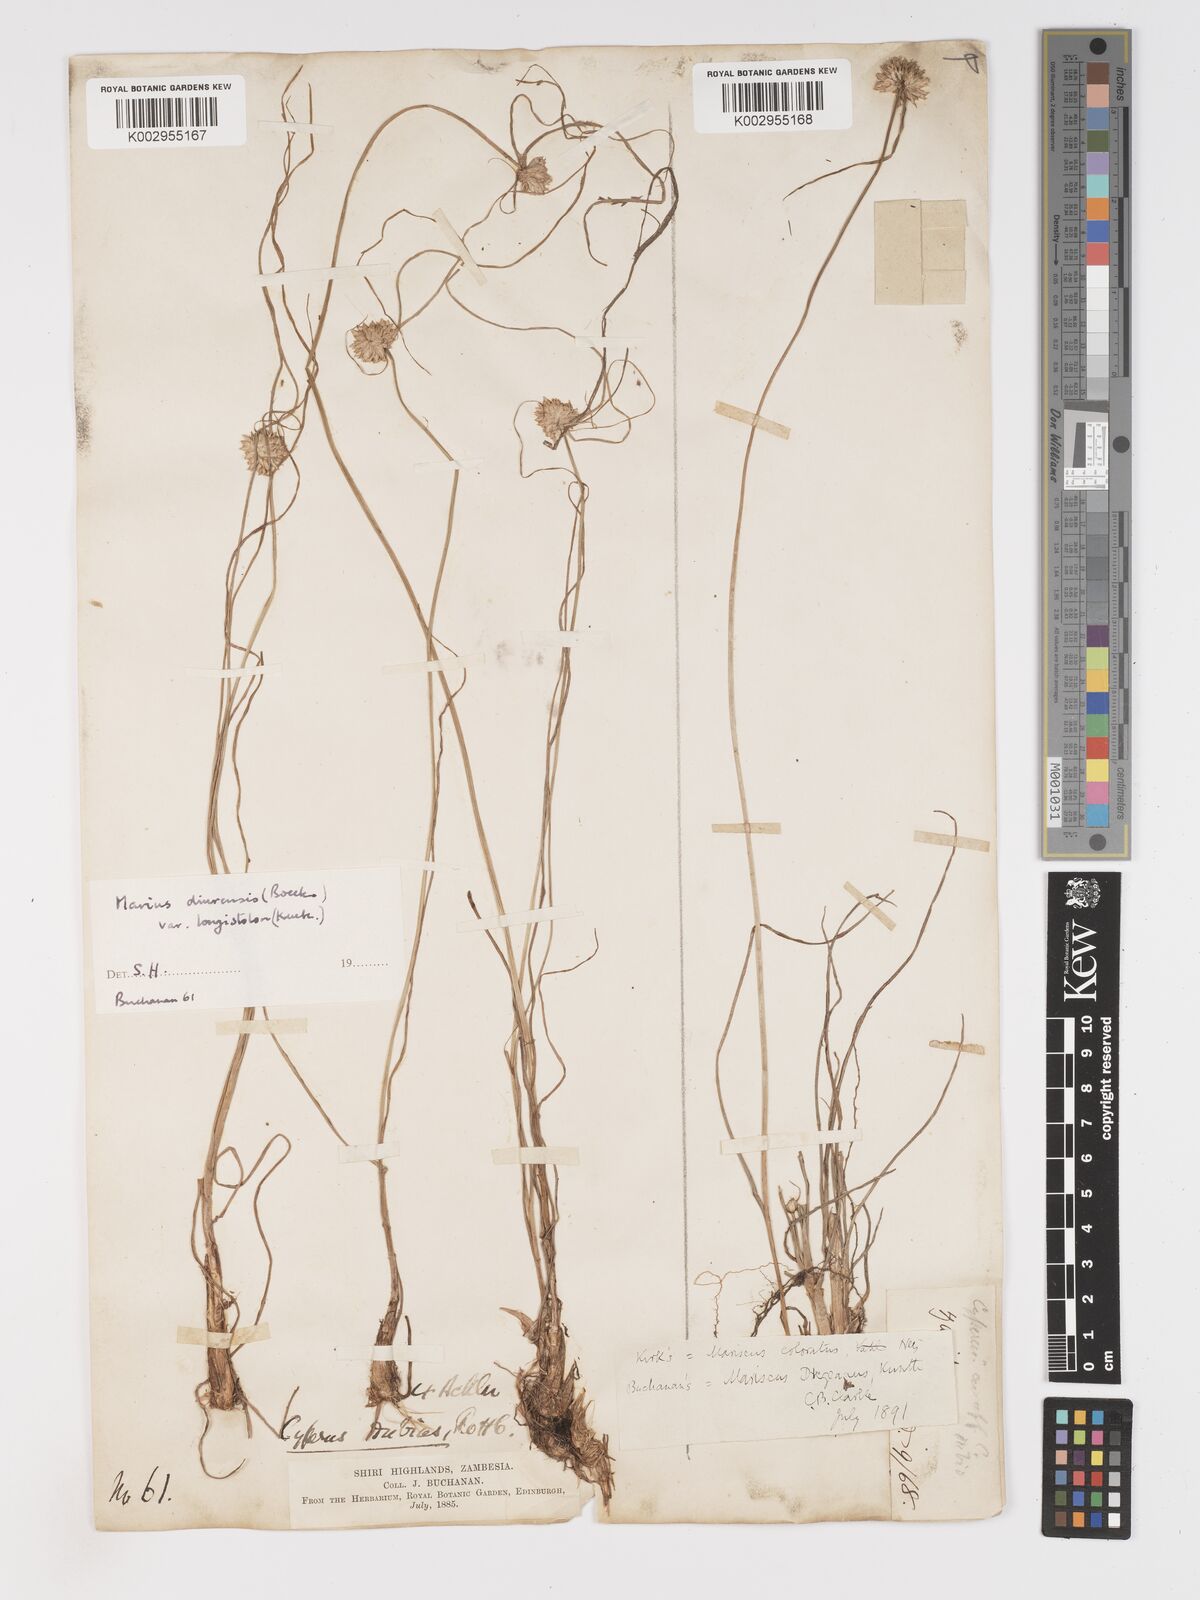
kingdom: Plantae
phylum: Tracheophyta
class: Liliopsida
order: Poales
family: Cyperaceae
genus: Cyperus
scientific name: Cyperus dubius
